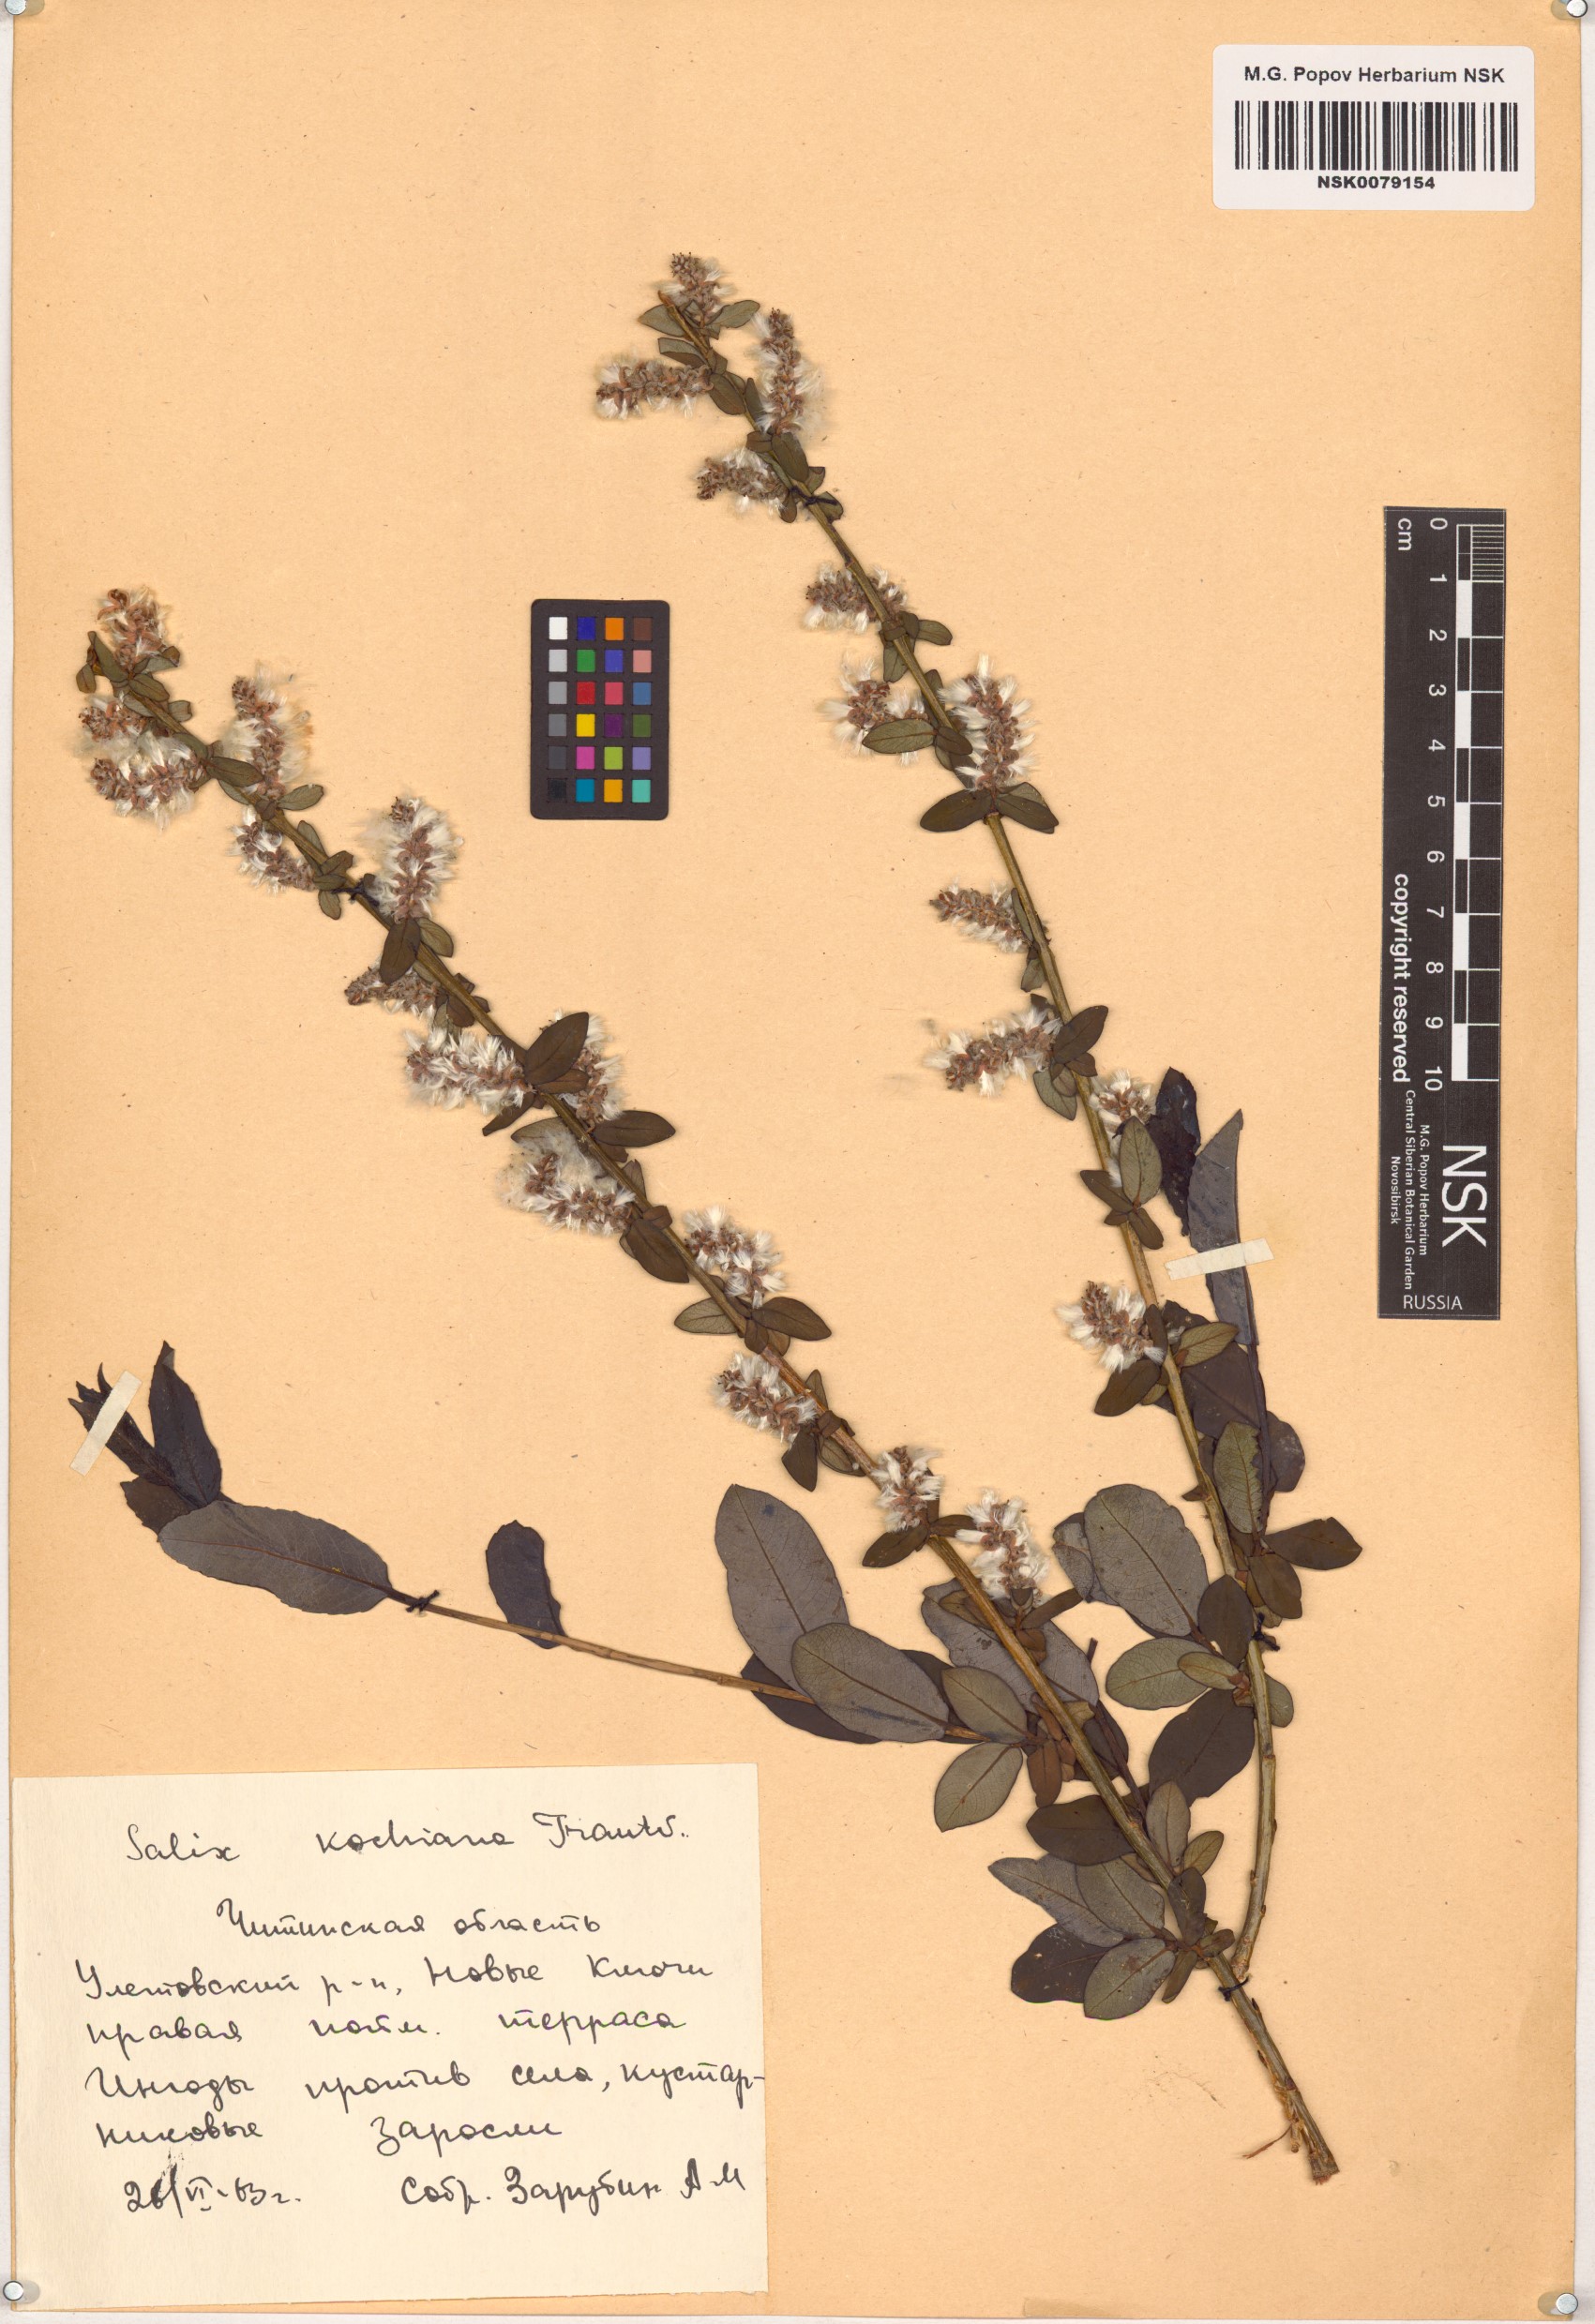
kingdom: Plantae
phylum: Tracheophyta
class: Magnoliopsida
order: Malpighiales
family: Salicaceae
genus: Salix
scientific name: Salix kochiana
